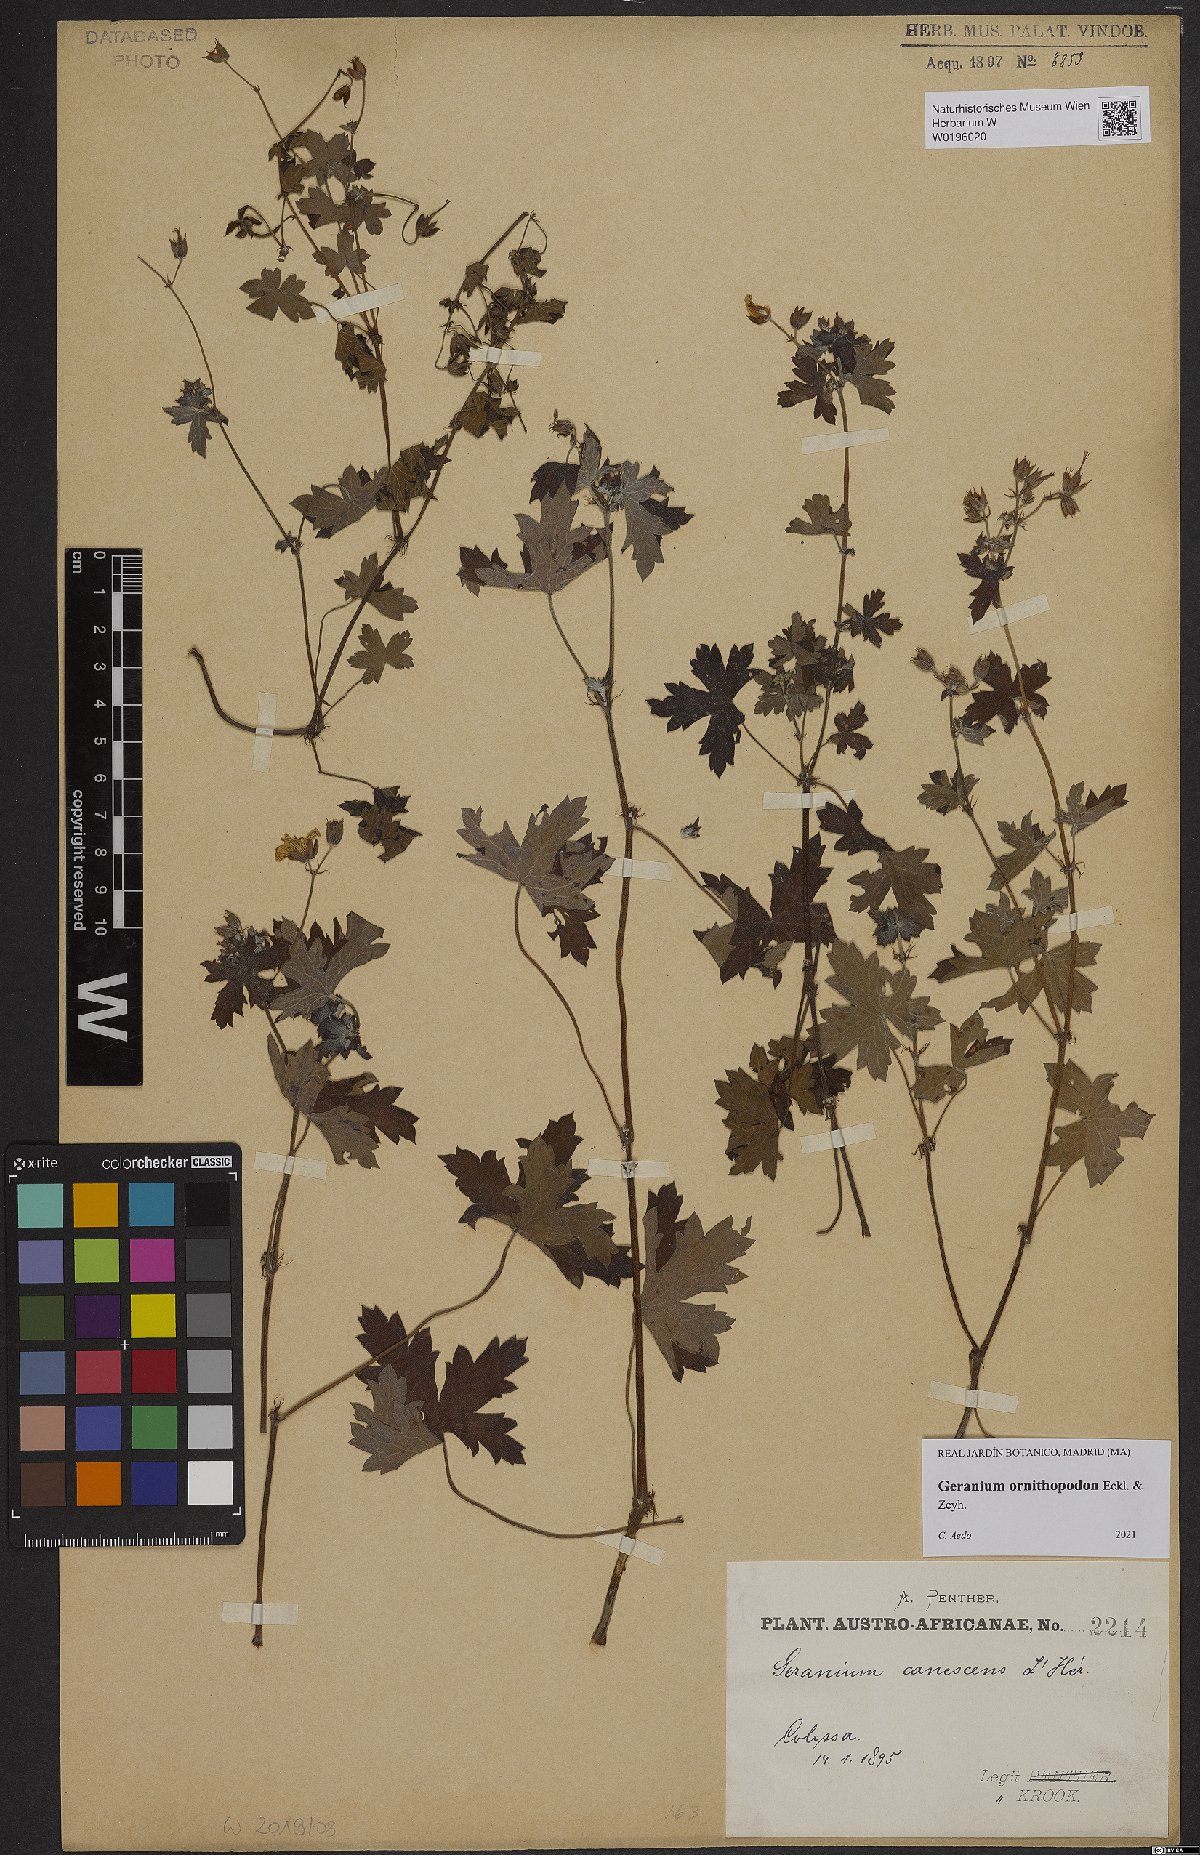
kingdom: Plantae
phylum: Tracheophyta
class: Magnoliopsida
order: Geraniales
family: Geraniaceae
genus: Geranium
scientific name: Geranium ornithopodon
